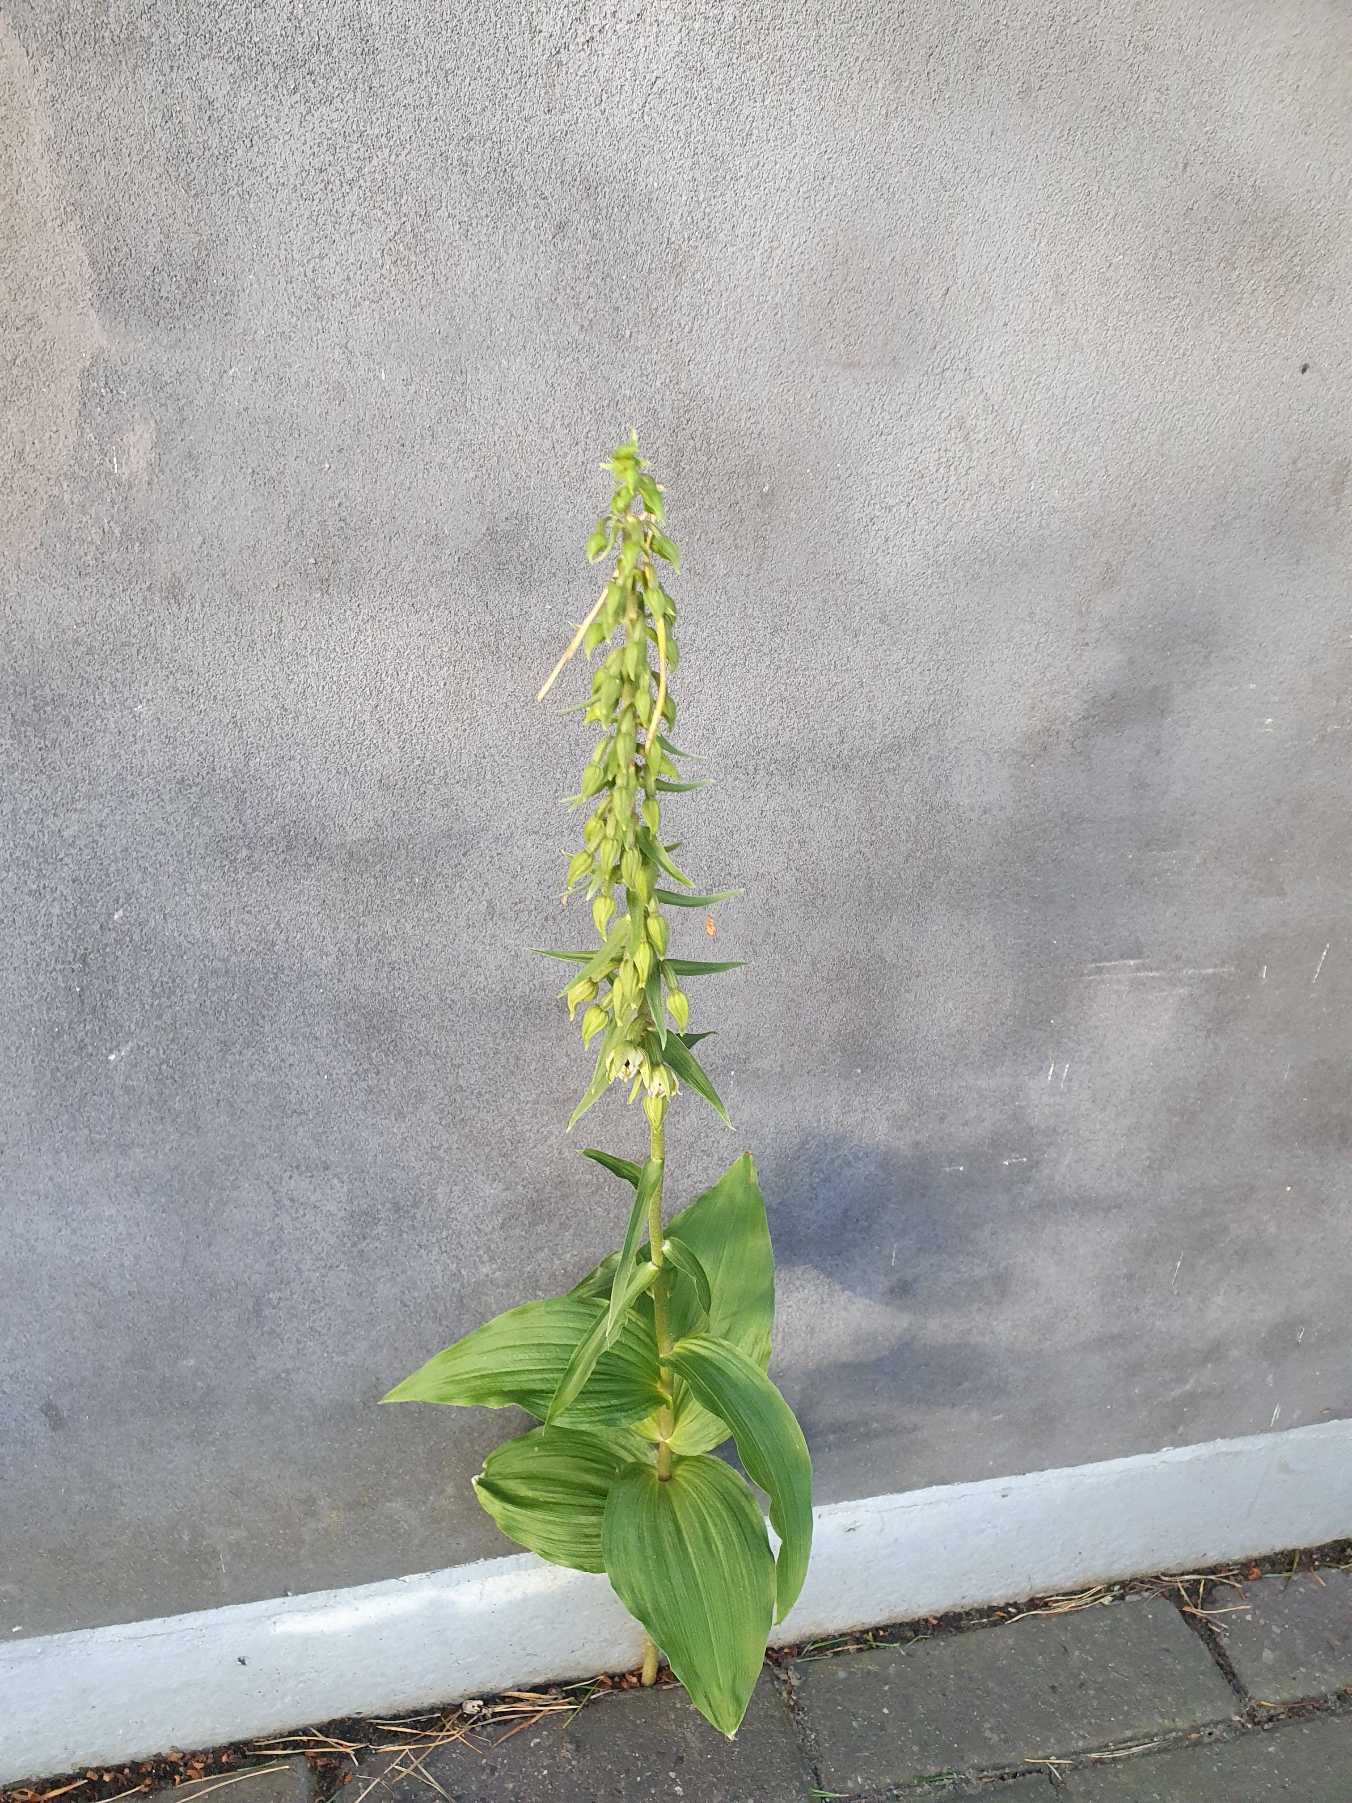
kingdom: Plantae
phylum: Tracheophyta
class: Liliopsida
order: Asparagales
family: Orchidaceae
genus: Epipactis
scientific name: Epipactis helleborine
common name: Skov-hullæbe
